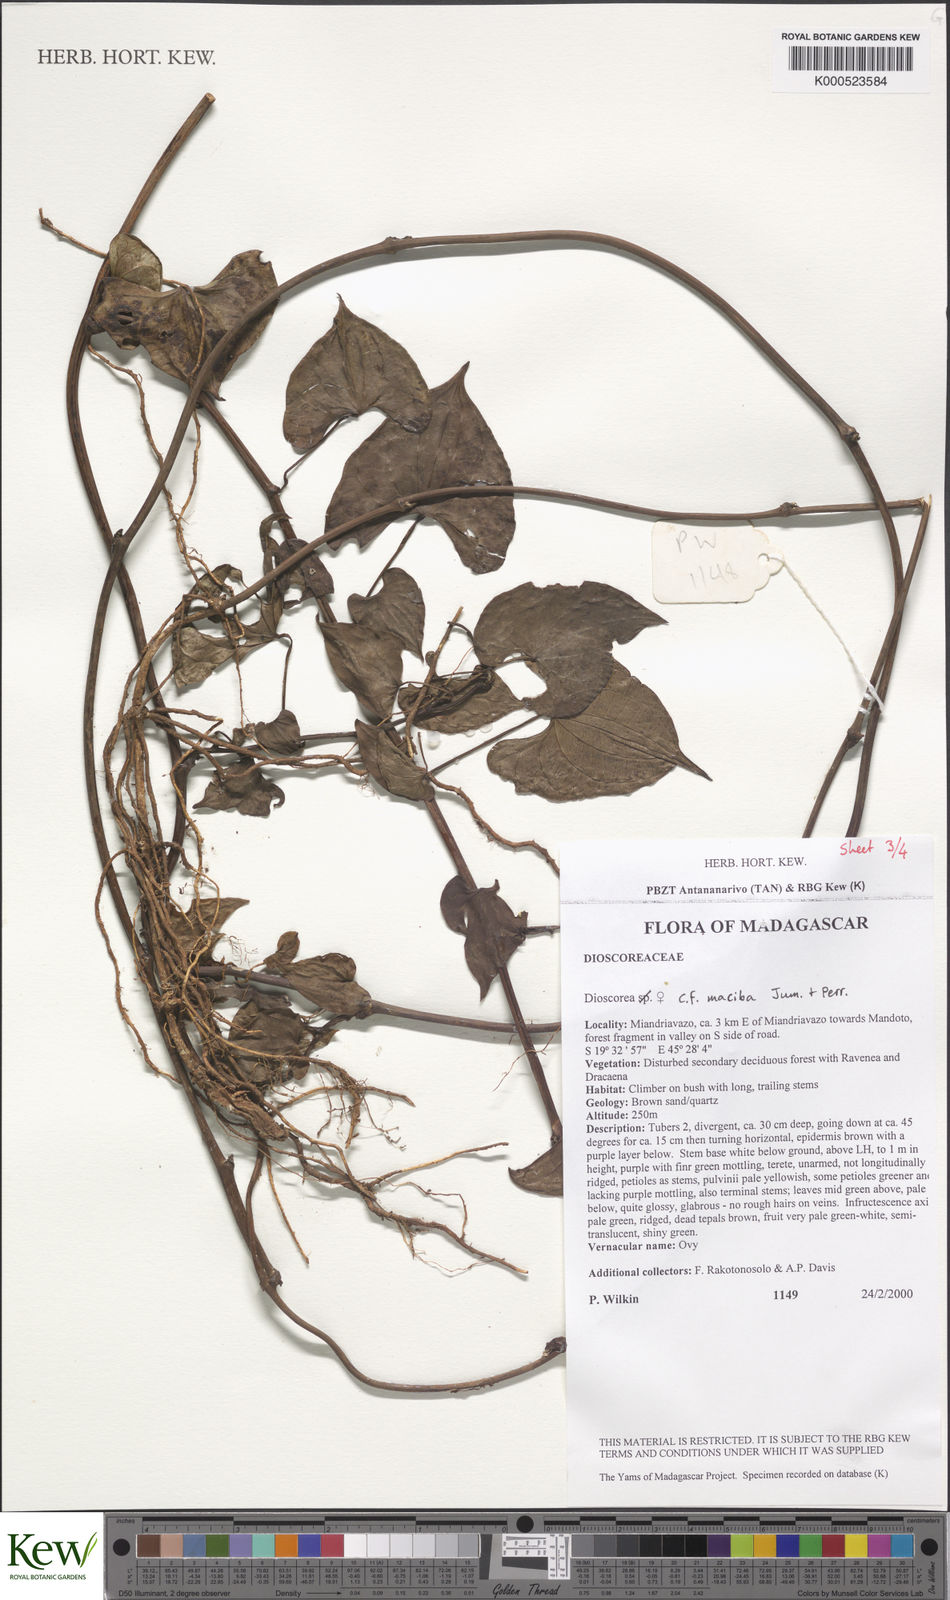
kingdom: Plantae
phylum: Tracheophyta
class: Liliopsida
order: Dioscoreales
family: Dioscoreaceae
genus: Dioscorea
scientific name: Dioscorea maciba
